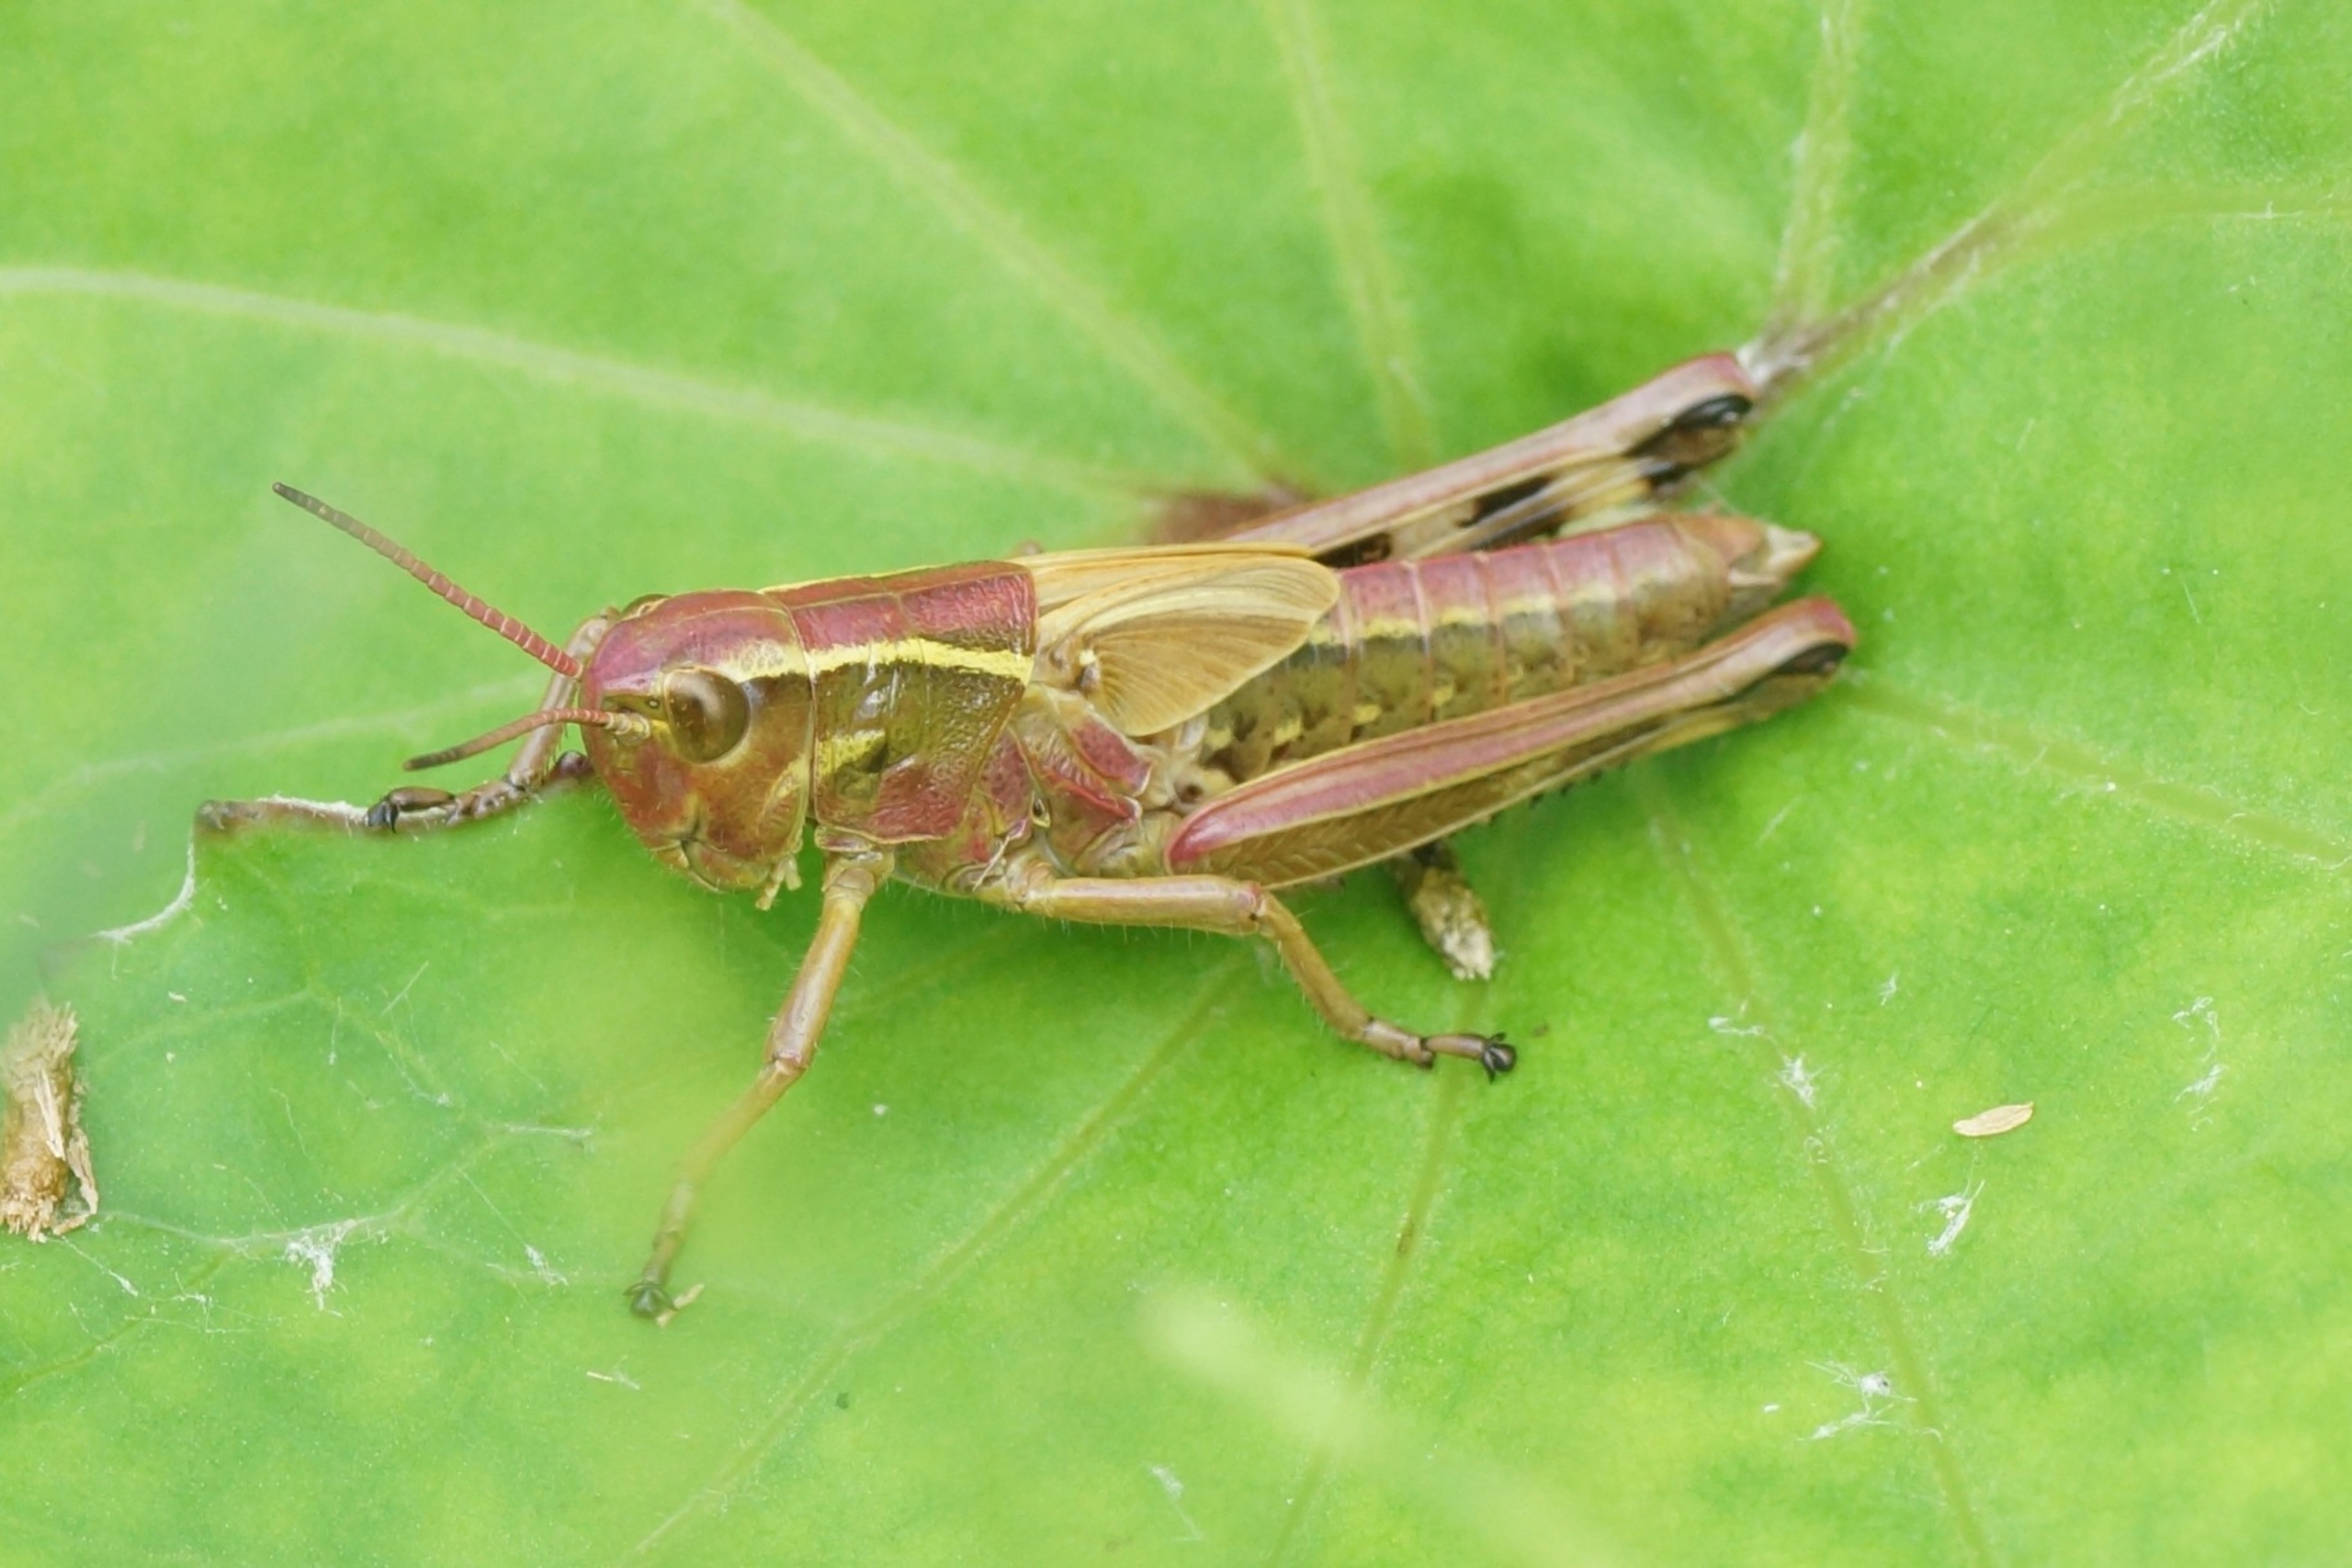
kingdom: Animalia
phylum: Arthropoda
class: Insecta
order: Orthoptera
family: Acrididae
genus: Stethophyma
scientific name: Stethophyma grossum
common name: Sumpgræshoppe
